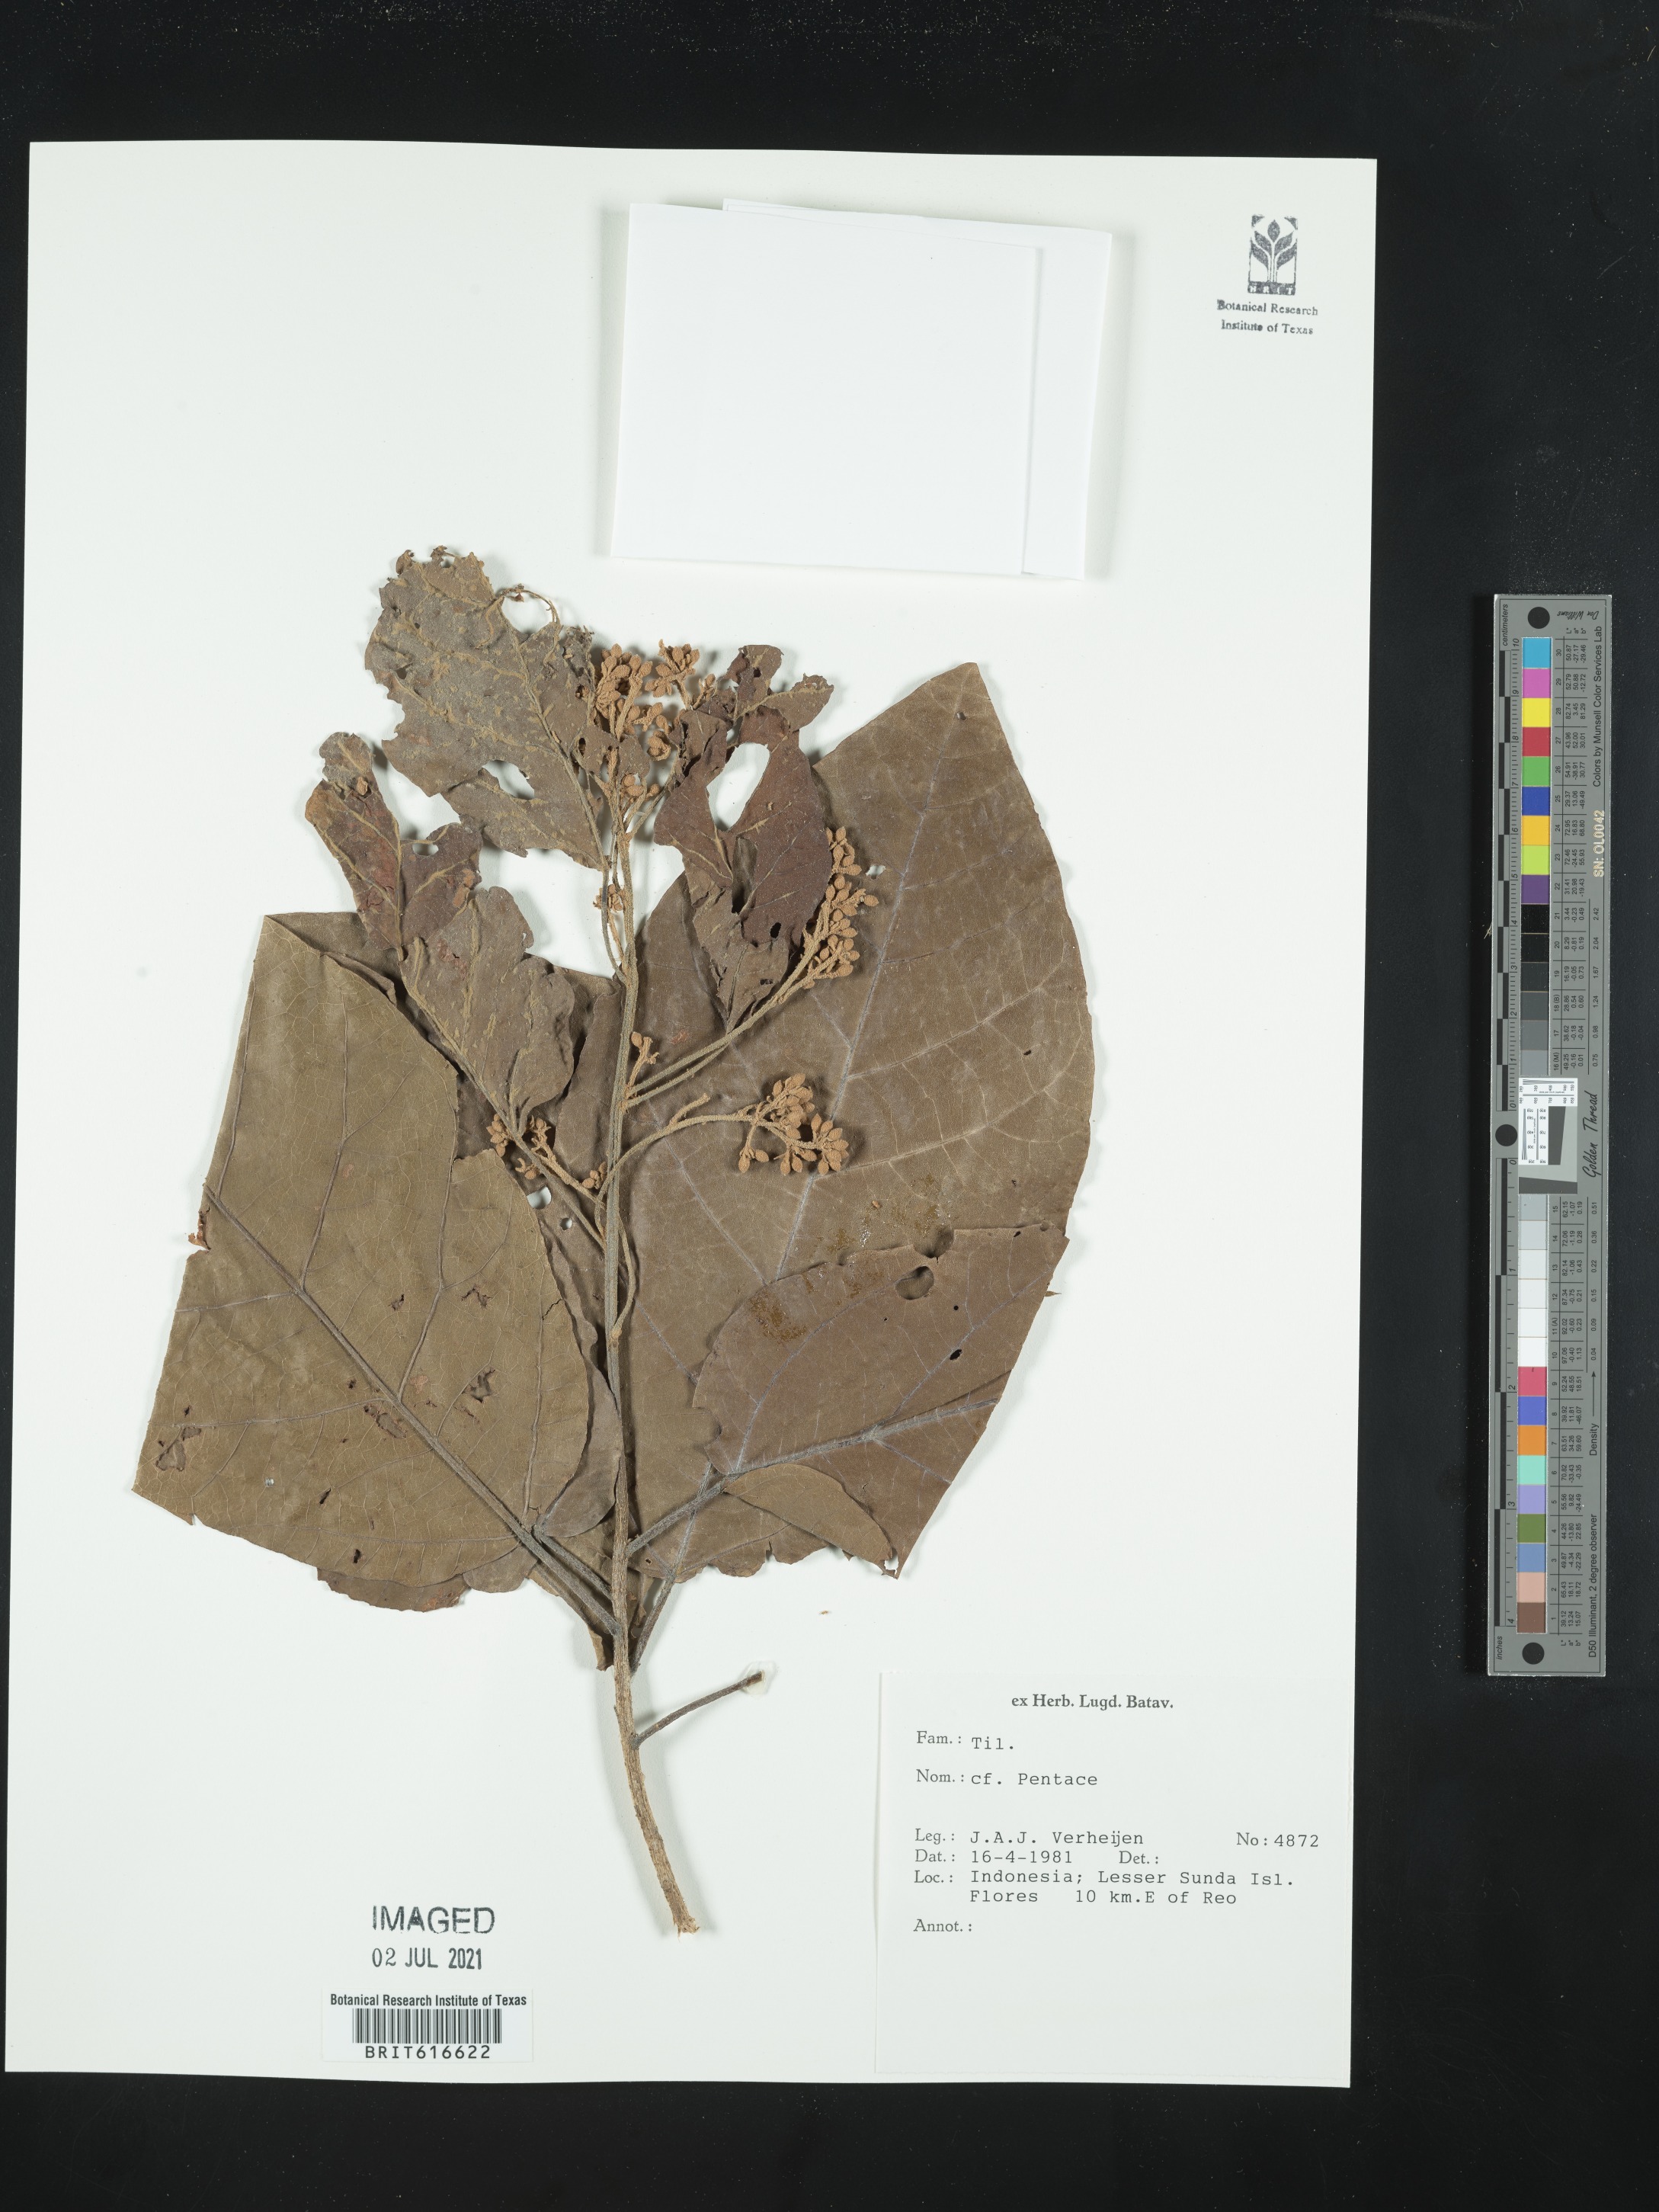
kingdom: Plantae
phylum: Tracheophyta
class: Magnoliopsida
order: Malvales
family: Malvaceae
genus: Pentace
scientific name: Pentace
